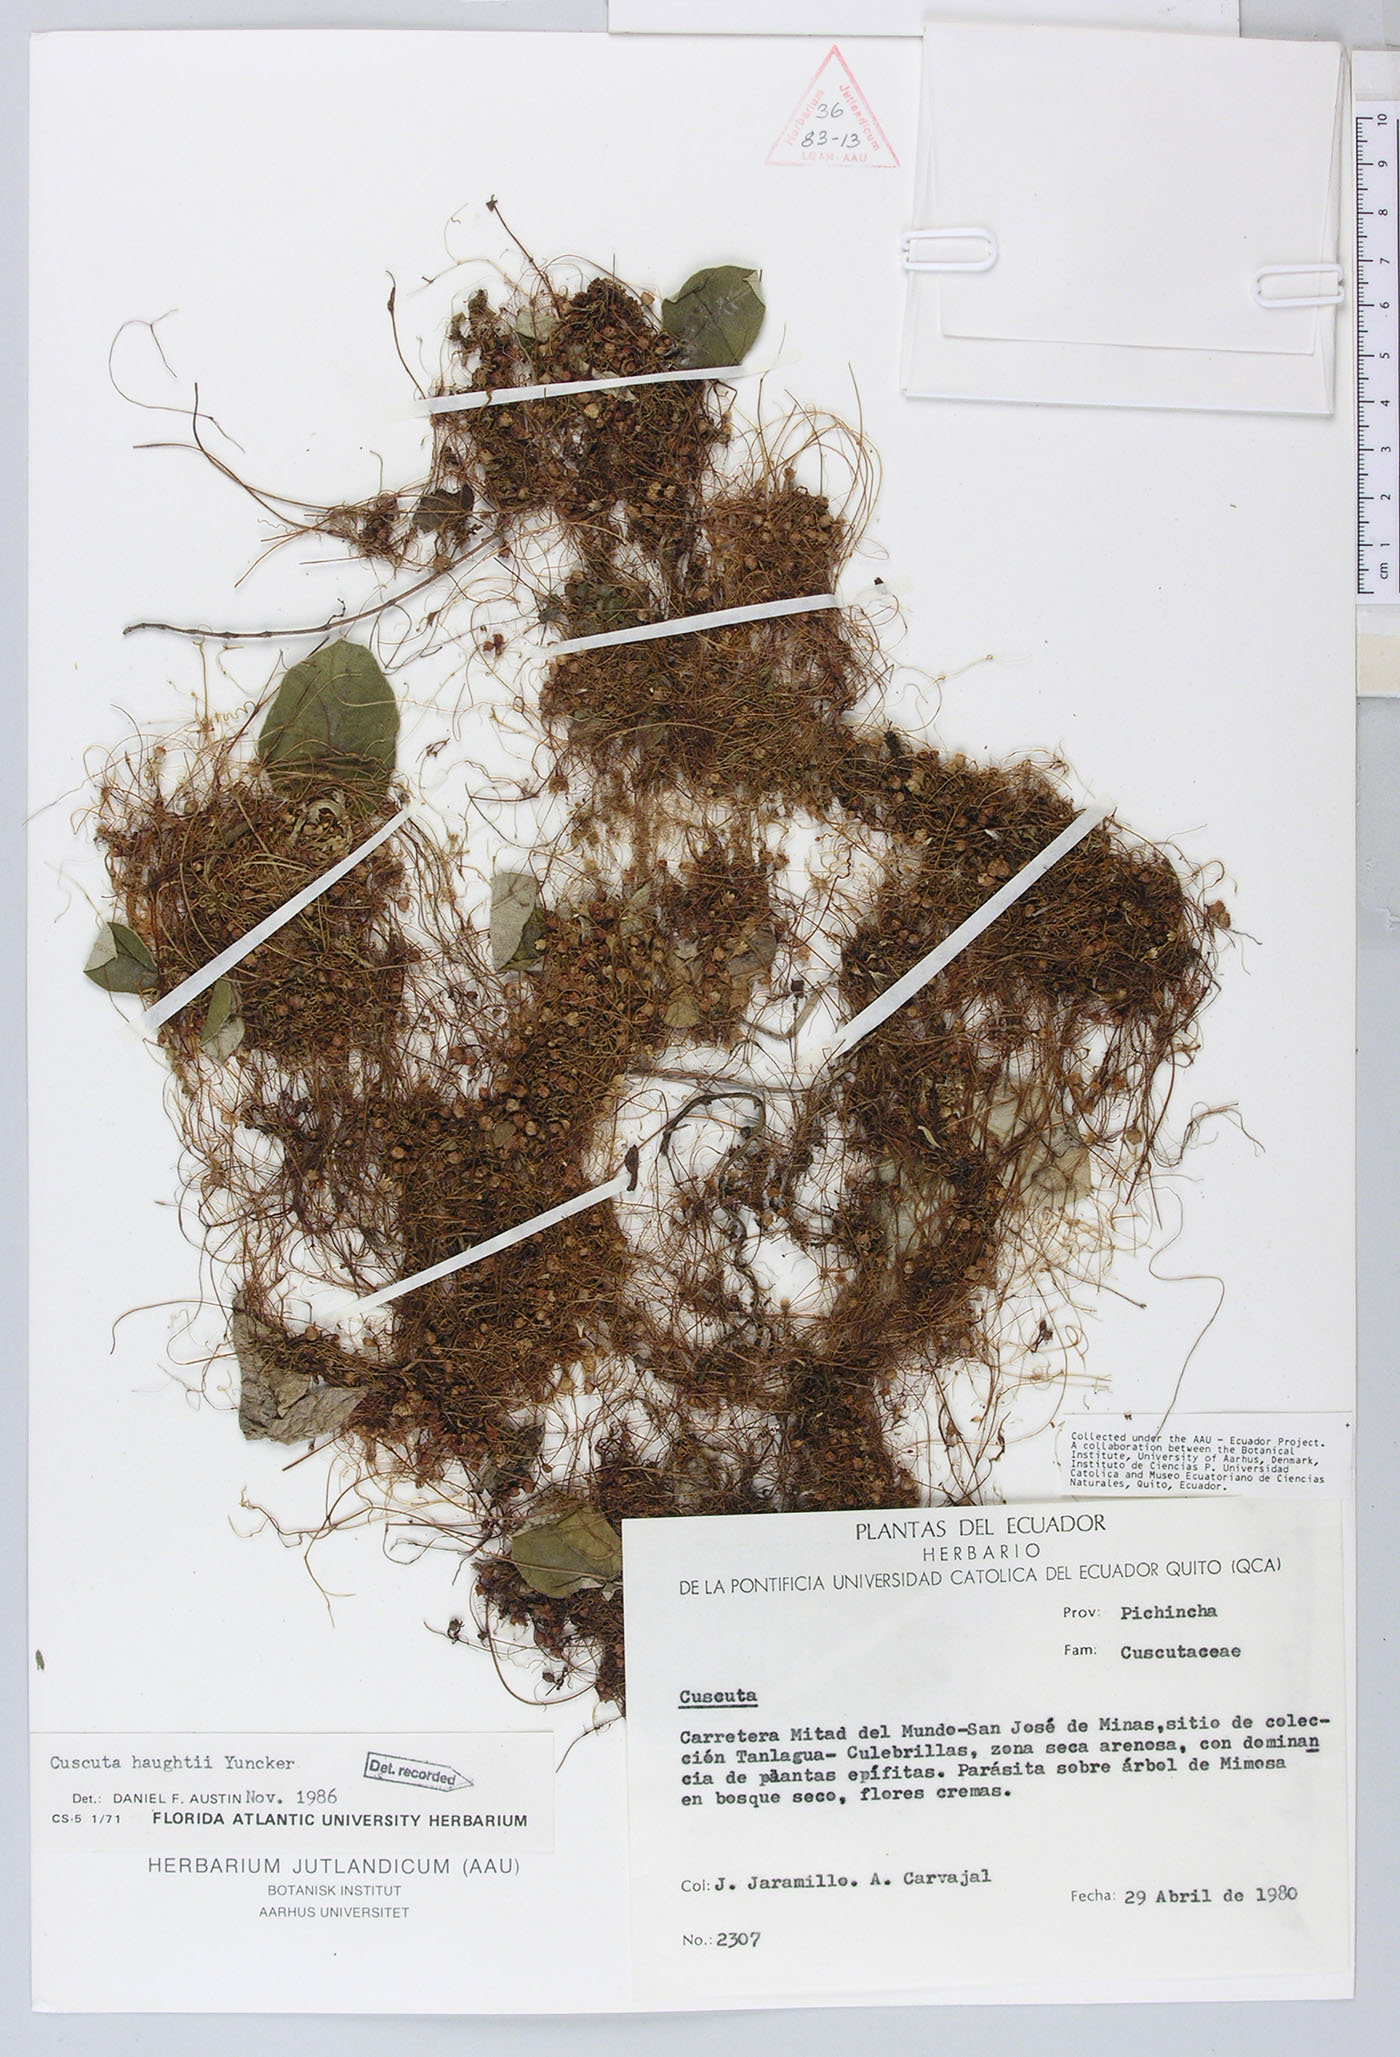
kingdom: Plantae
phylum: Tracheophyta
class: Magnoliopsida
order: Solanales
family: Convolvulaceae
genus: Cuscuta
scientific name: Cuscuta stenolepis
